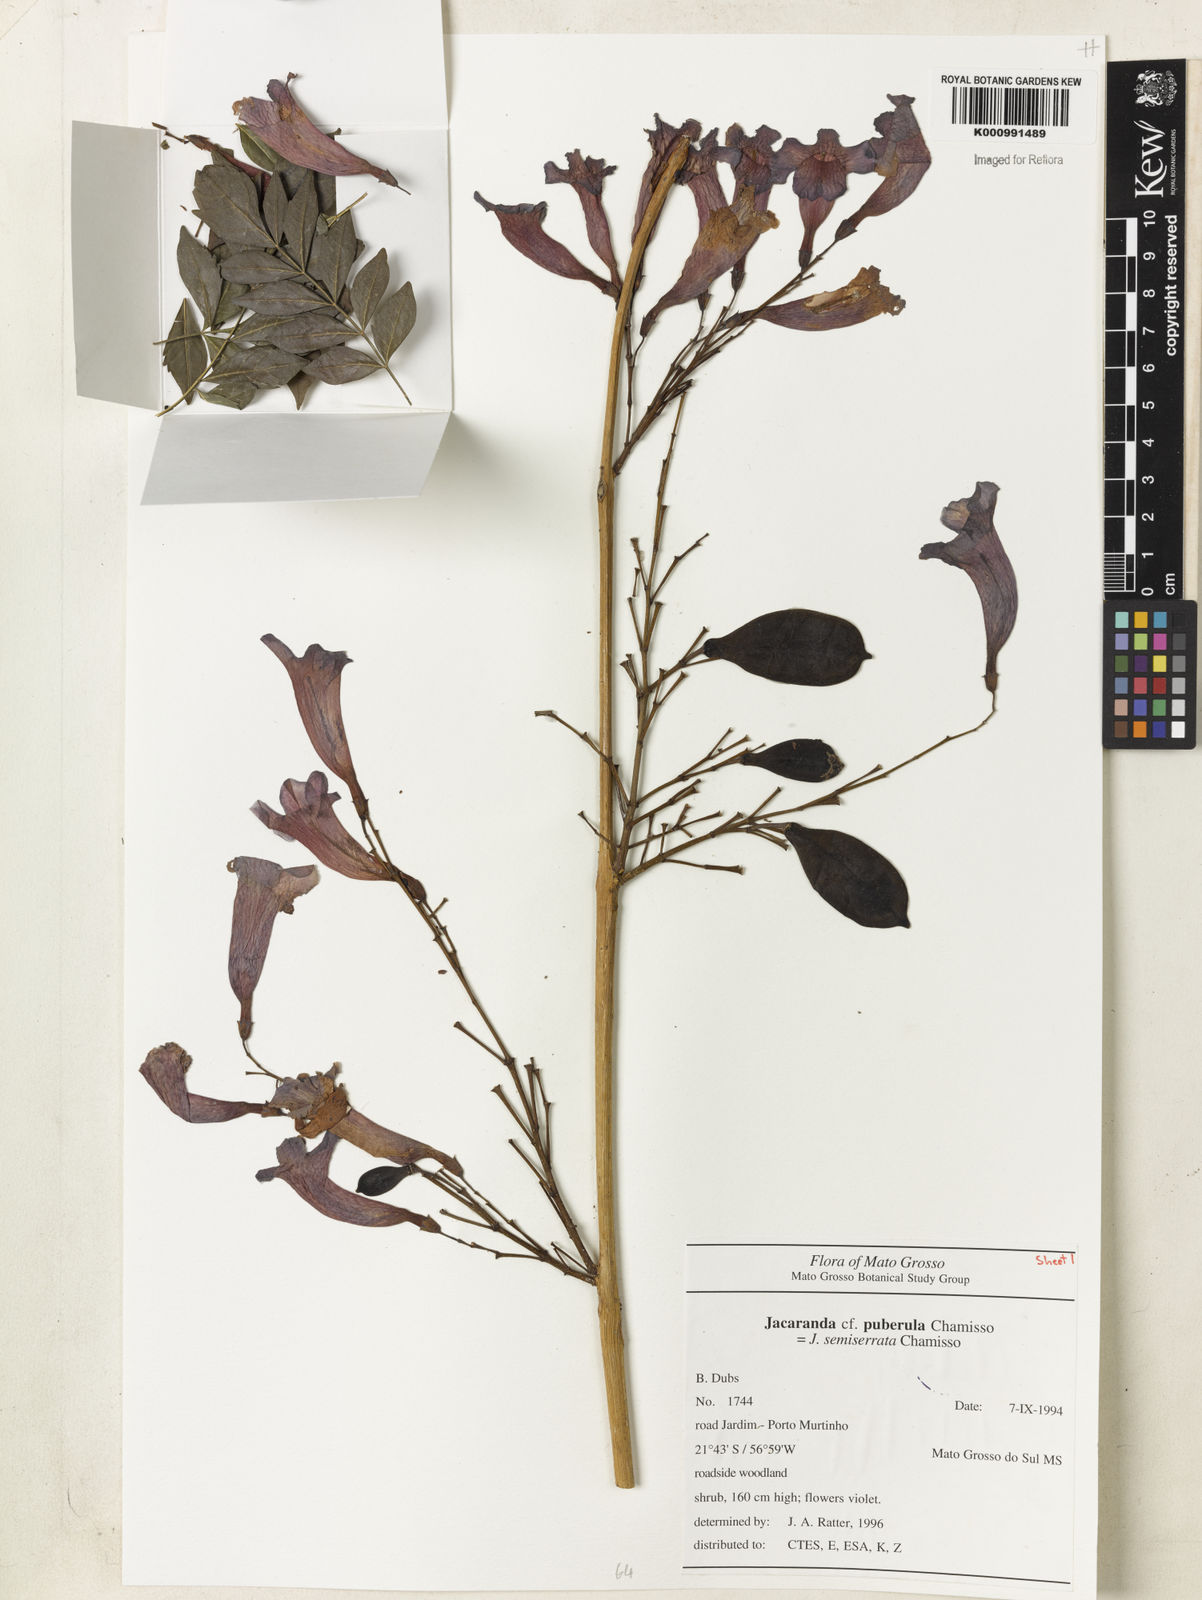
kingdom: Plantae
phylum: Tracheophyta
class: Magnoliopsida
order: Lamiales
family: Bignoniaceae
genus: Jacaranda
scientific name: Jacaranda puberula
